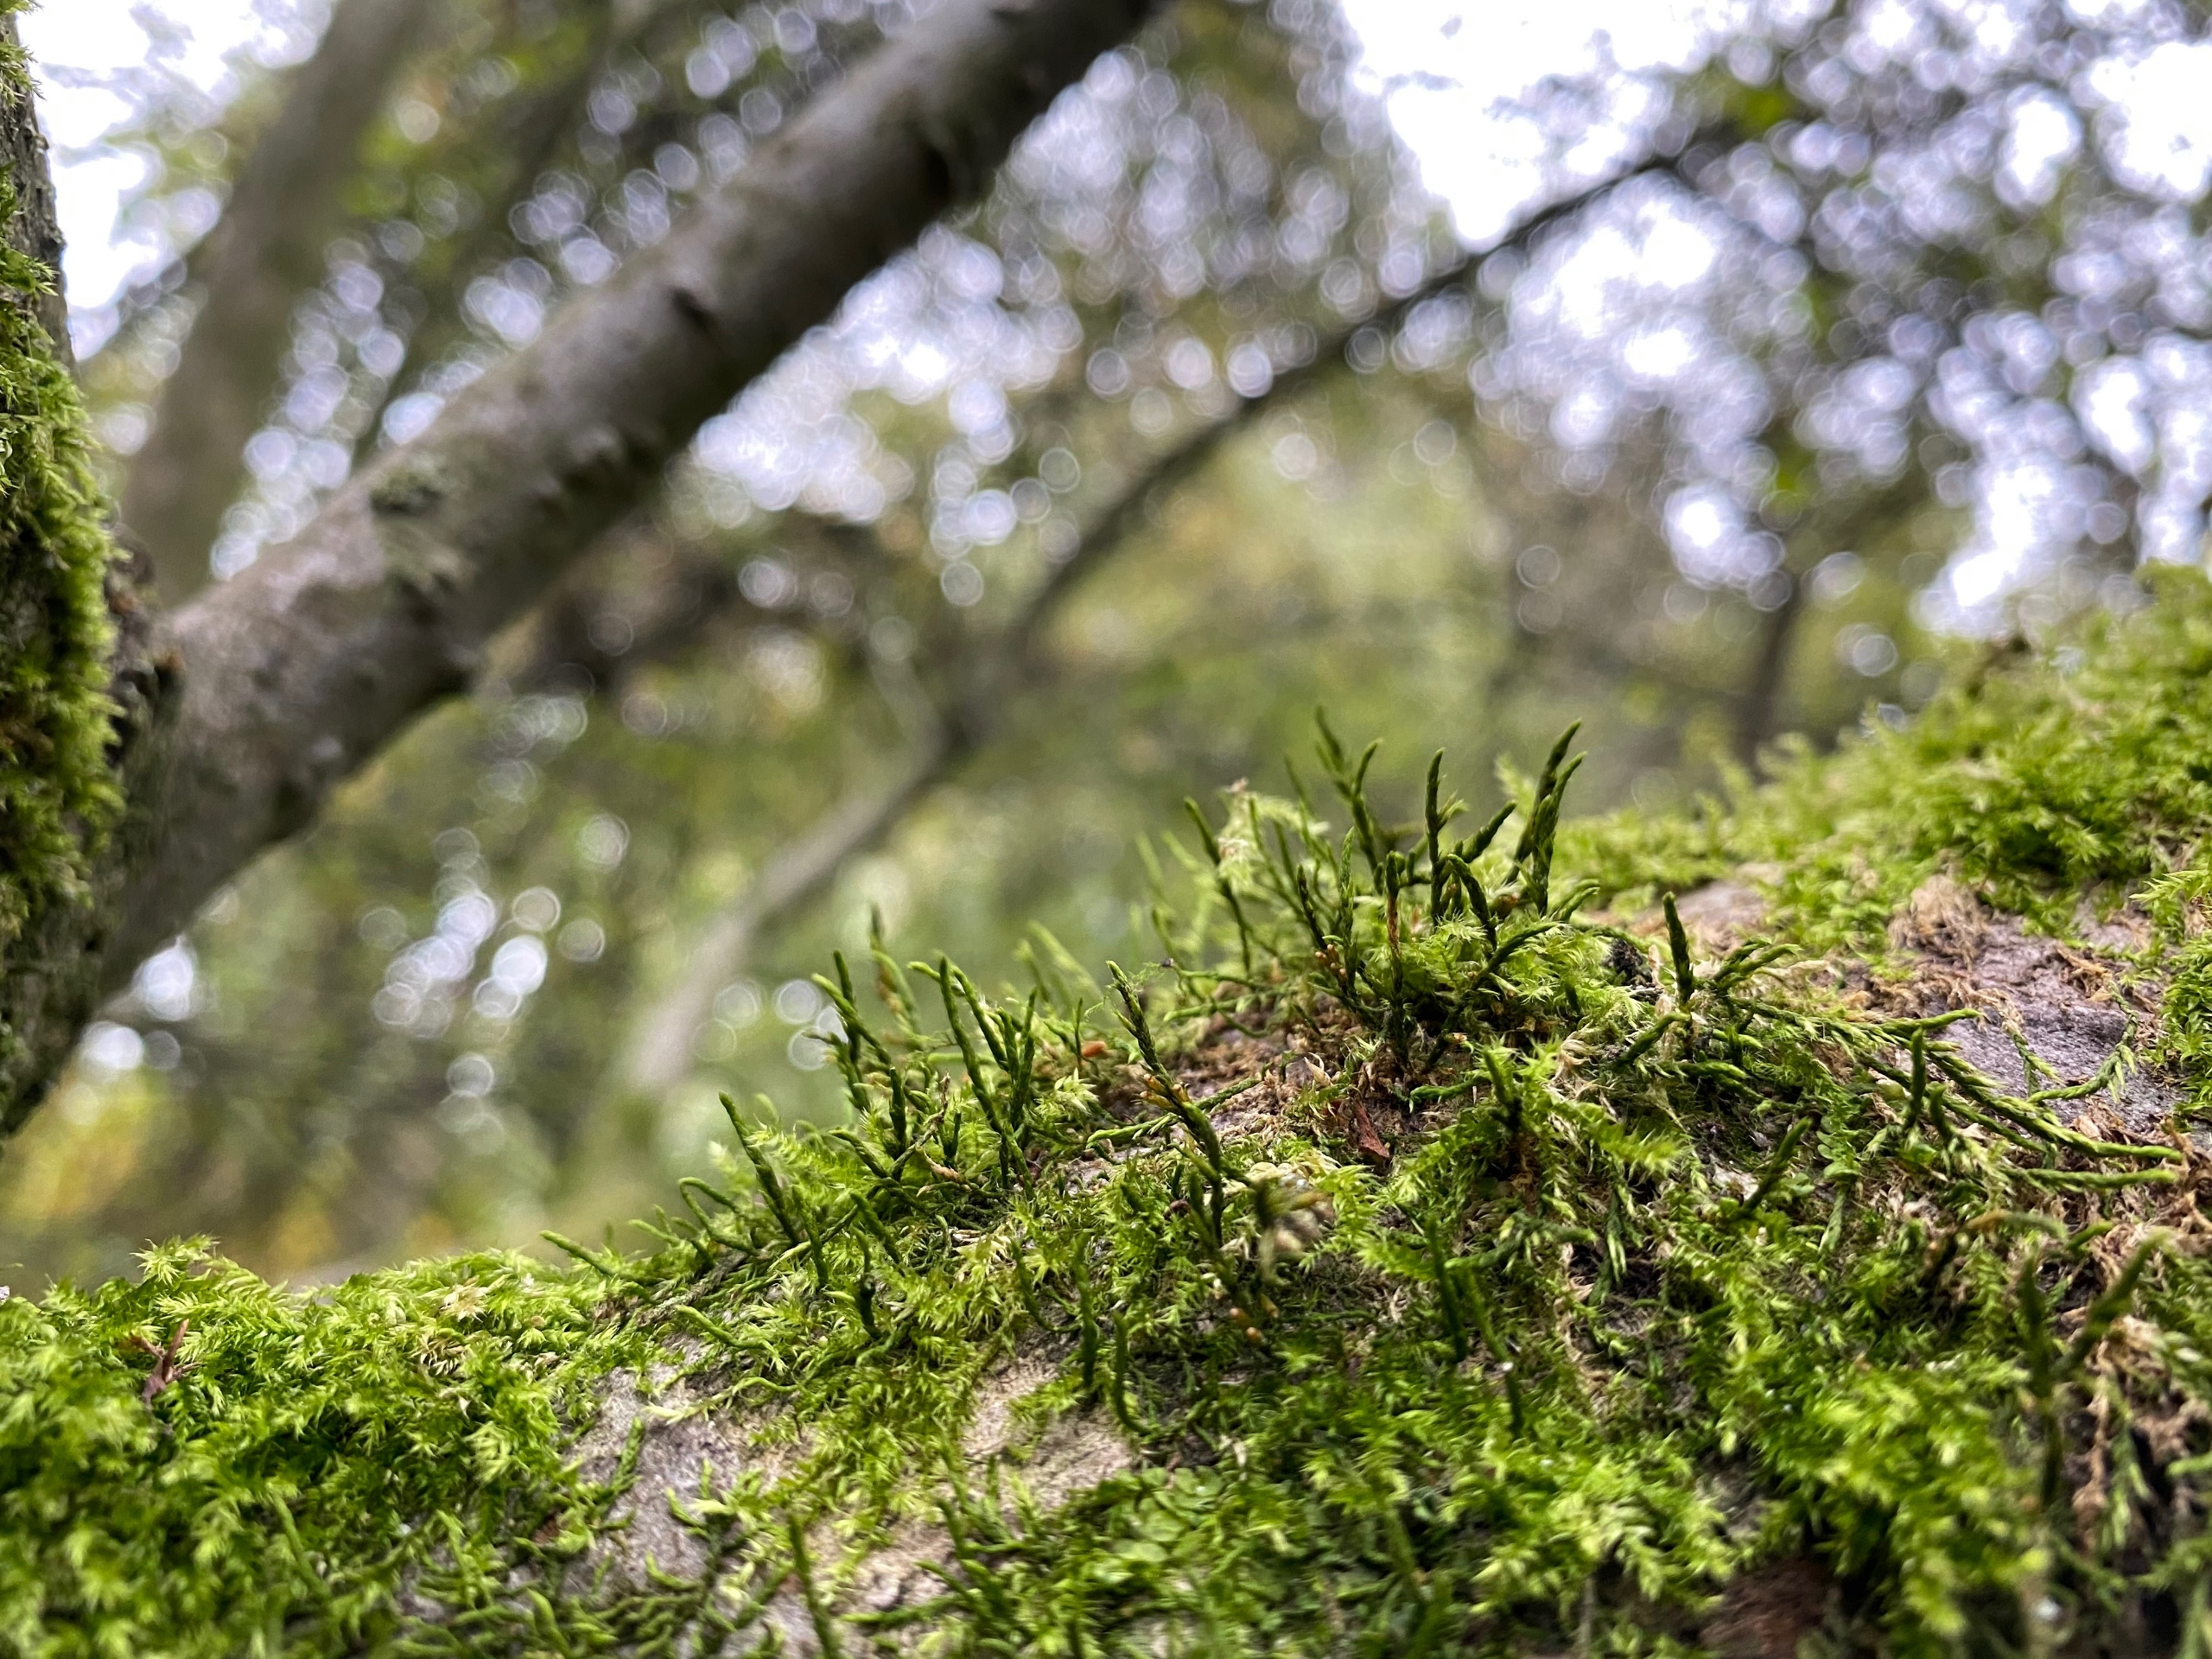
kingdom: Plantae
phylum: Bryophyta
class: Bryopsida
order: Hypnales
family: Cryphaeaceae
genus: Cryphaea
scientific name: Cryphaea heteromalla
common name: Bark-dækmos
